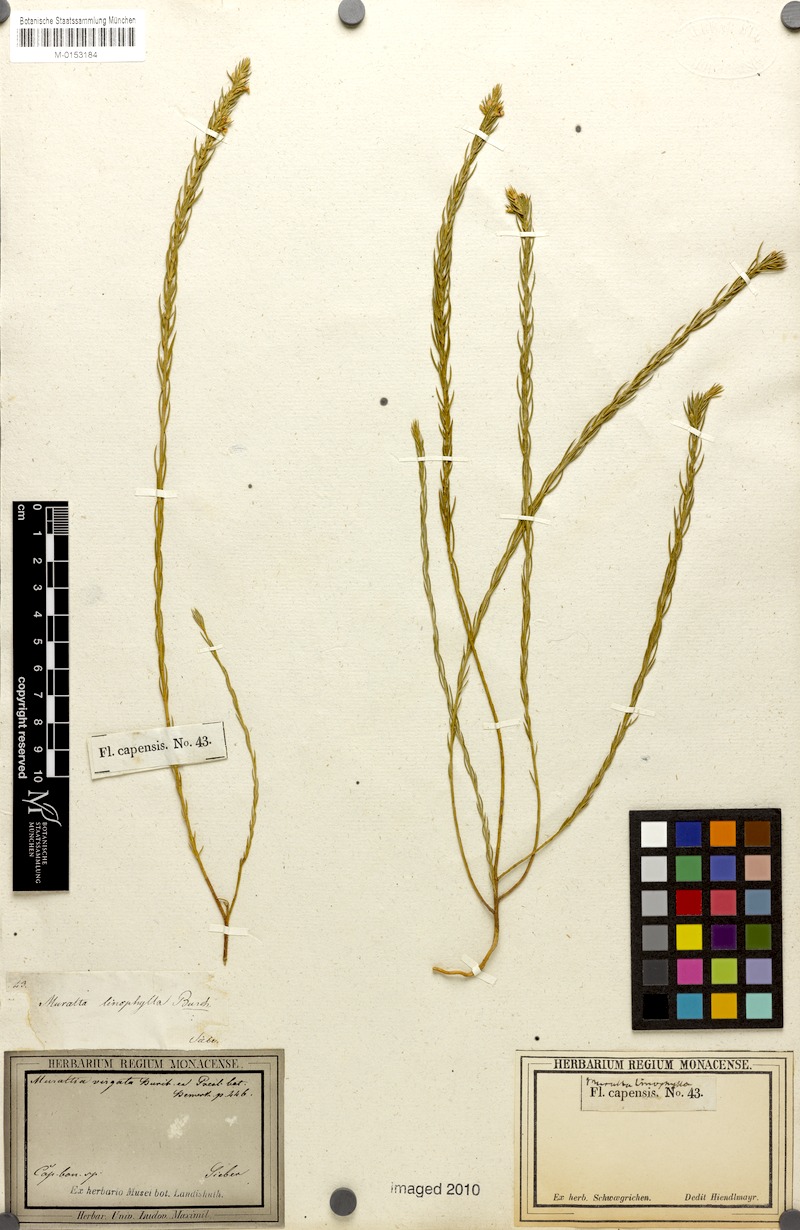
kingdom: Plantae
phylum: Tracheophyta
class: Magnoliopsida
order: Fabales
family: Polygalaceae
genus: Muraltia
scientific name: Muraltia ericoides
